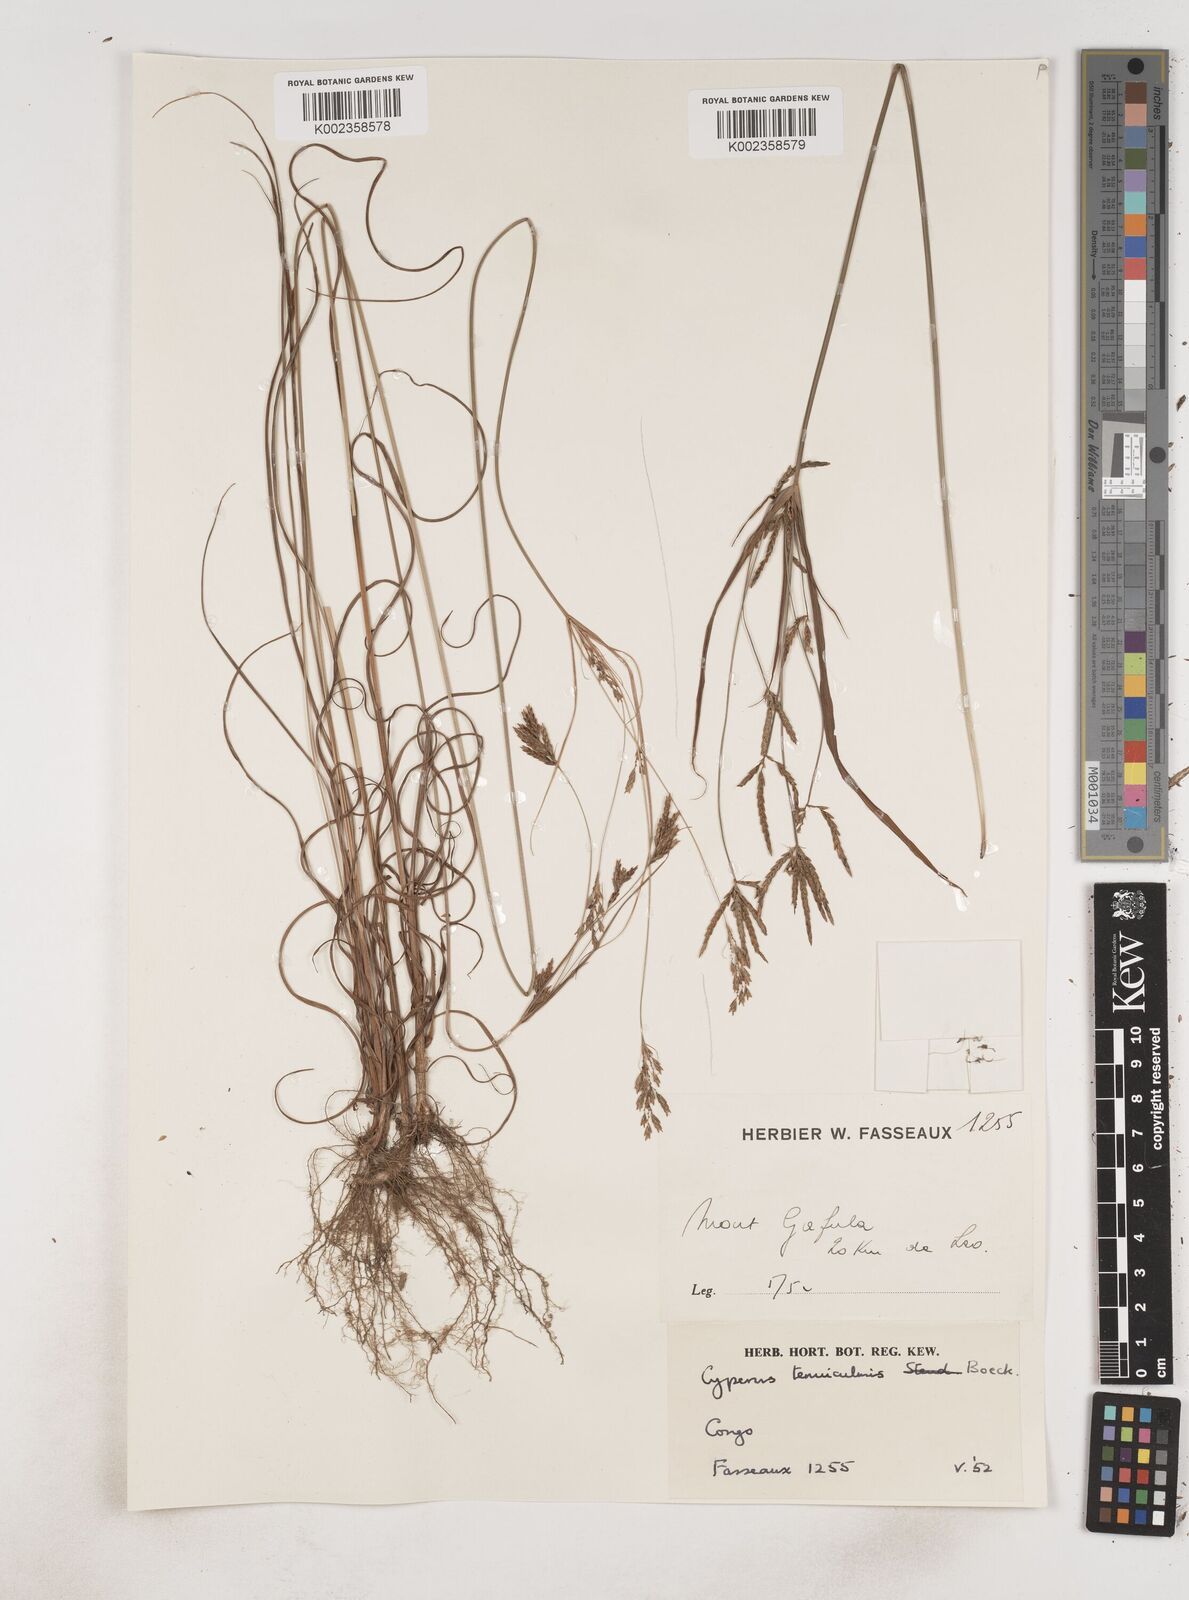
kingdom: Plantae
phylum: Tracheophyta
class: Liliopsida
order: Poales
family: Cyperaceae
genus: Cyperus
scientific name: Cyperus
